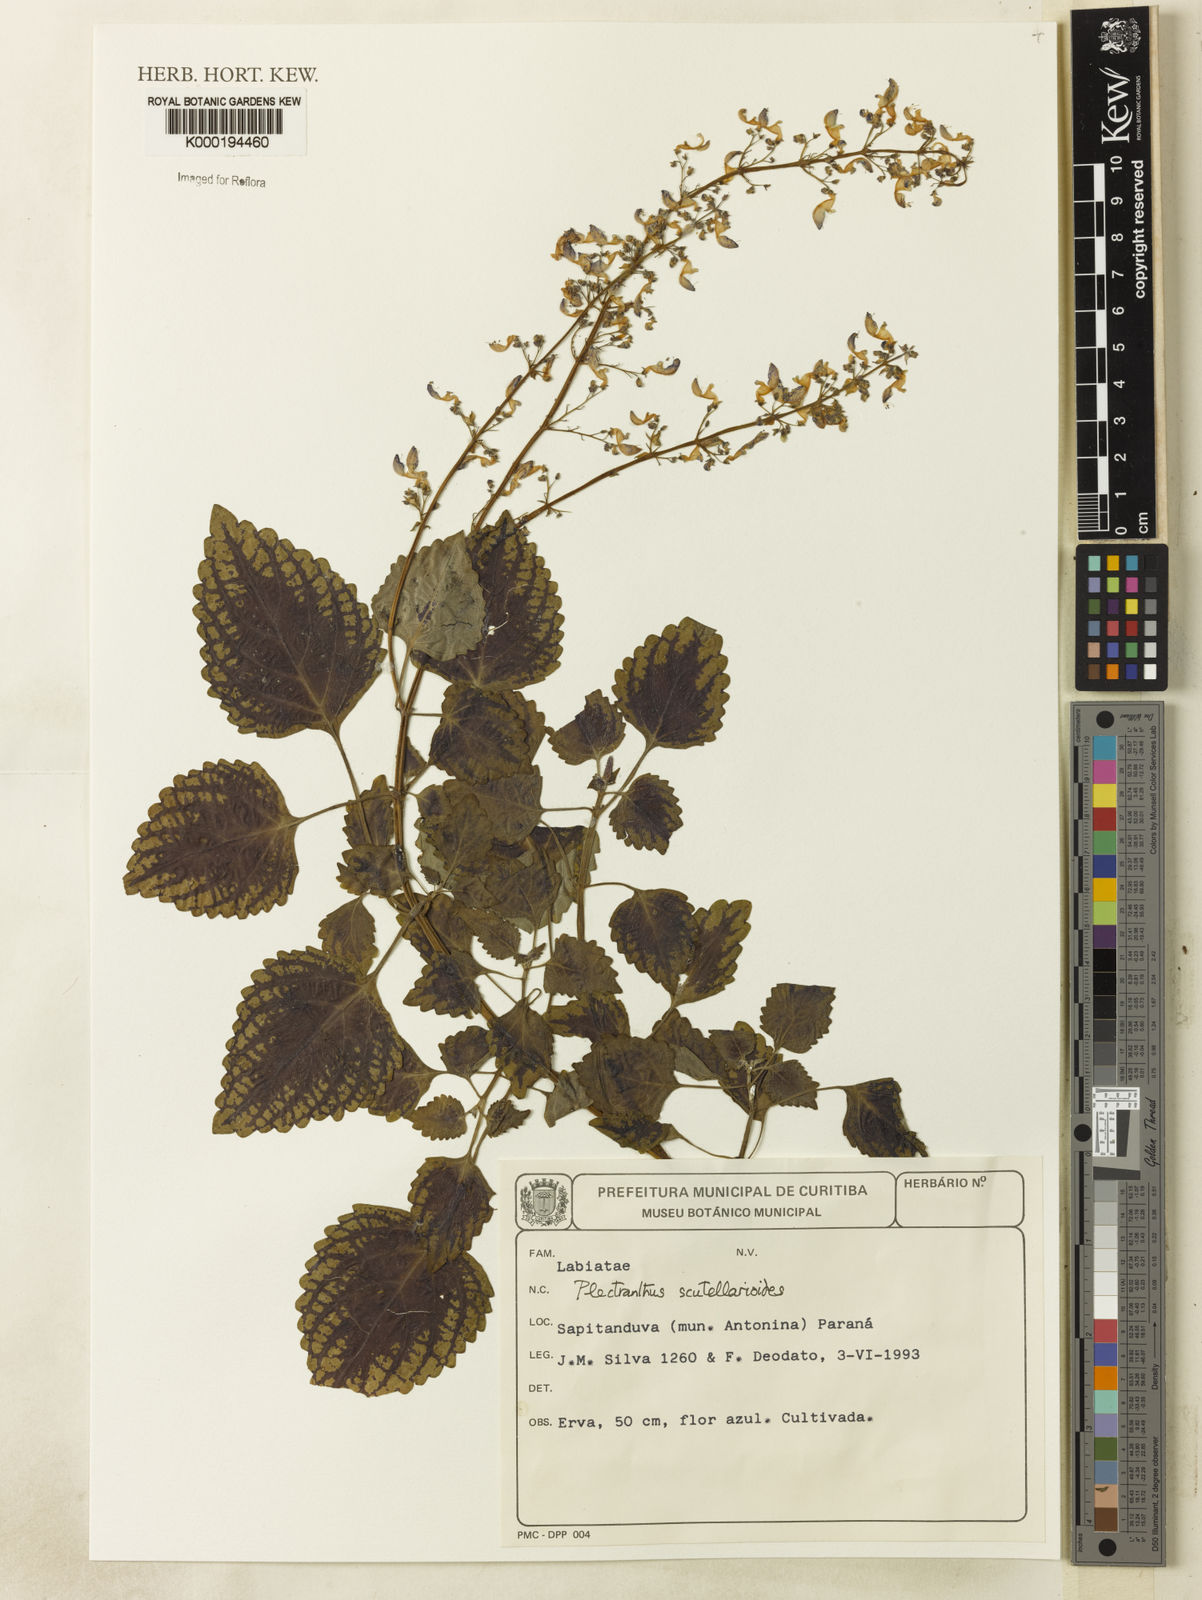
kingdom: Plantae
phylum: Tracheophyta
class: Magnoliopsida
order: Lamiales
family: Lamiaceae
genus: Coleus
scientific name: Coleus scutellarioides
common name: Coleus
